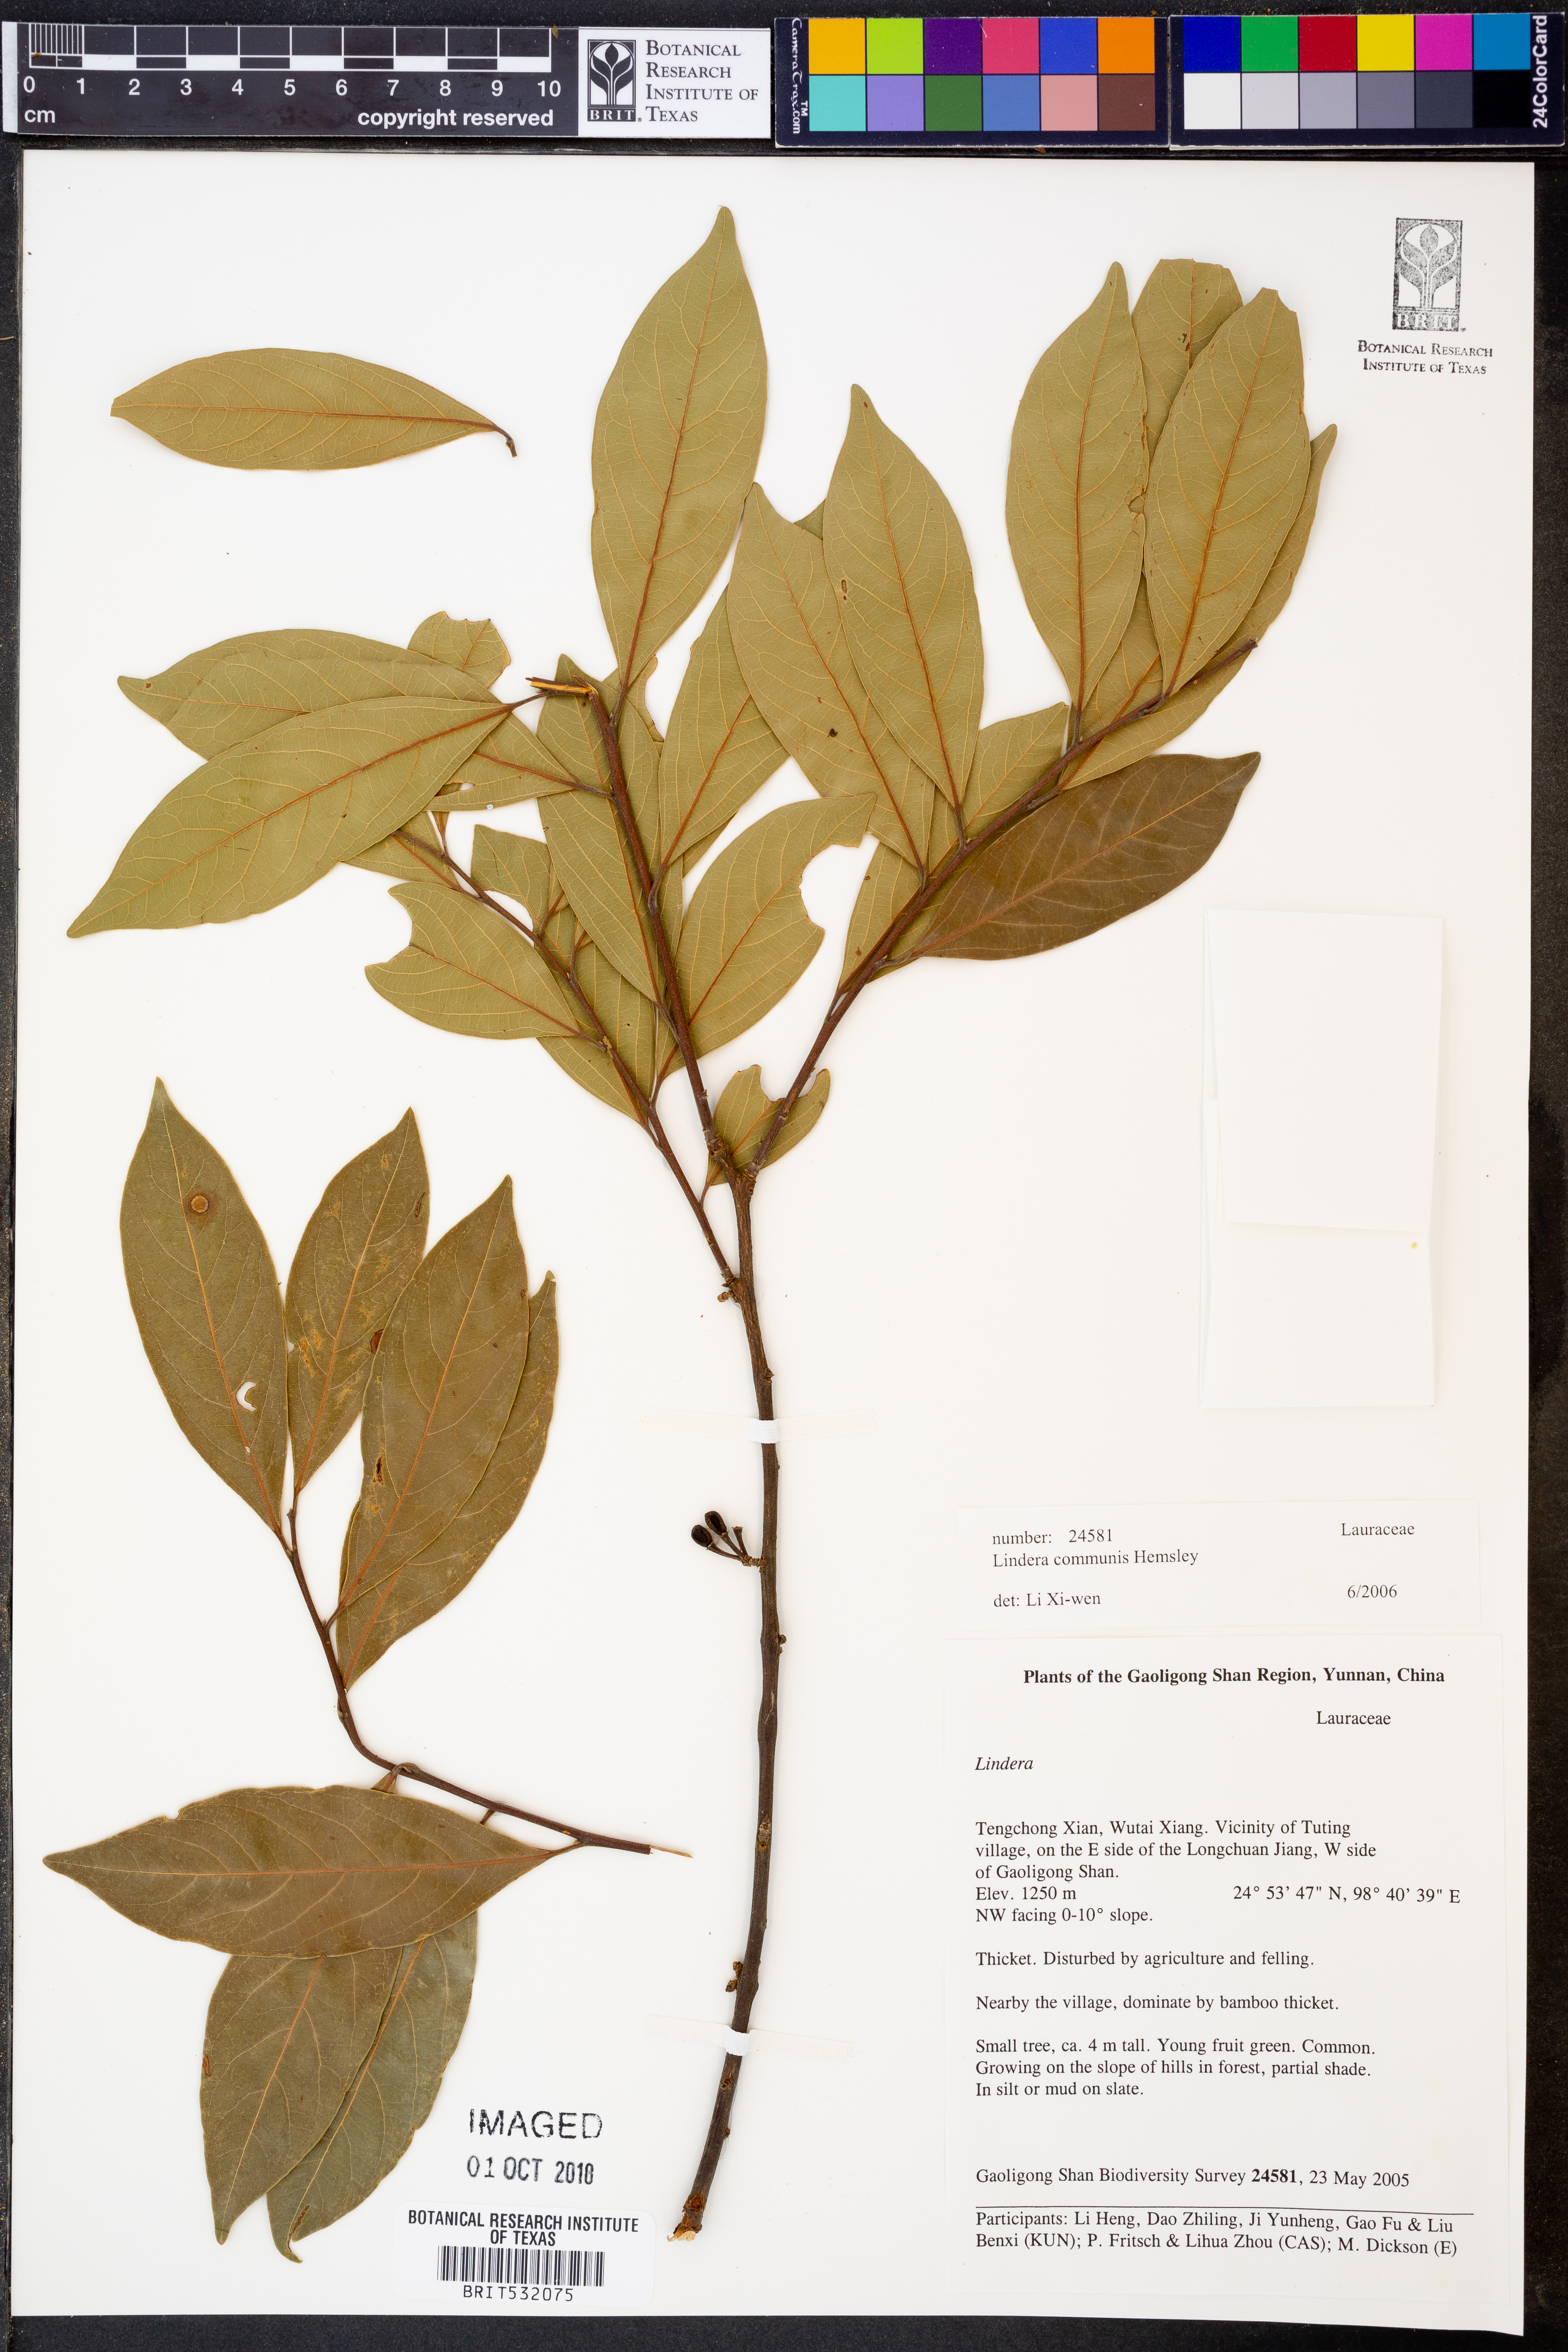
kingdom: Plantae
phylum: Tracheophyta
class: Magnoliopsida
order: Laurales
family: Lauraceae
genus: Lindera
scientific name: Lindera communis
